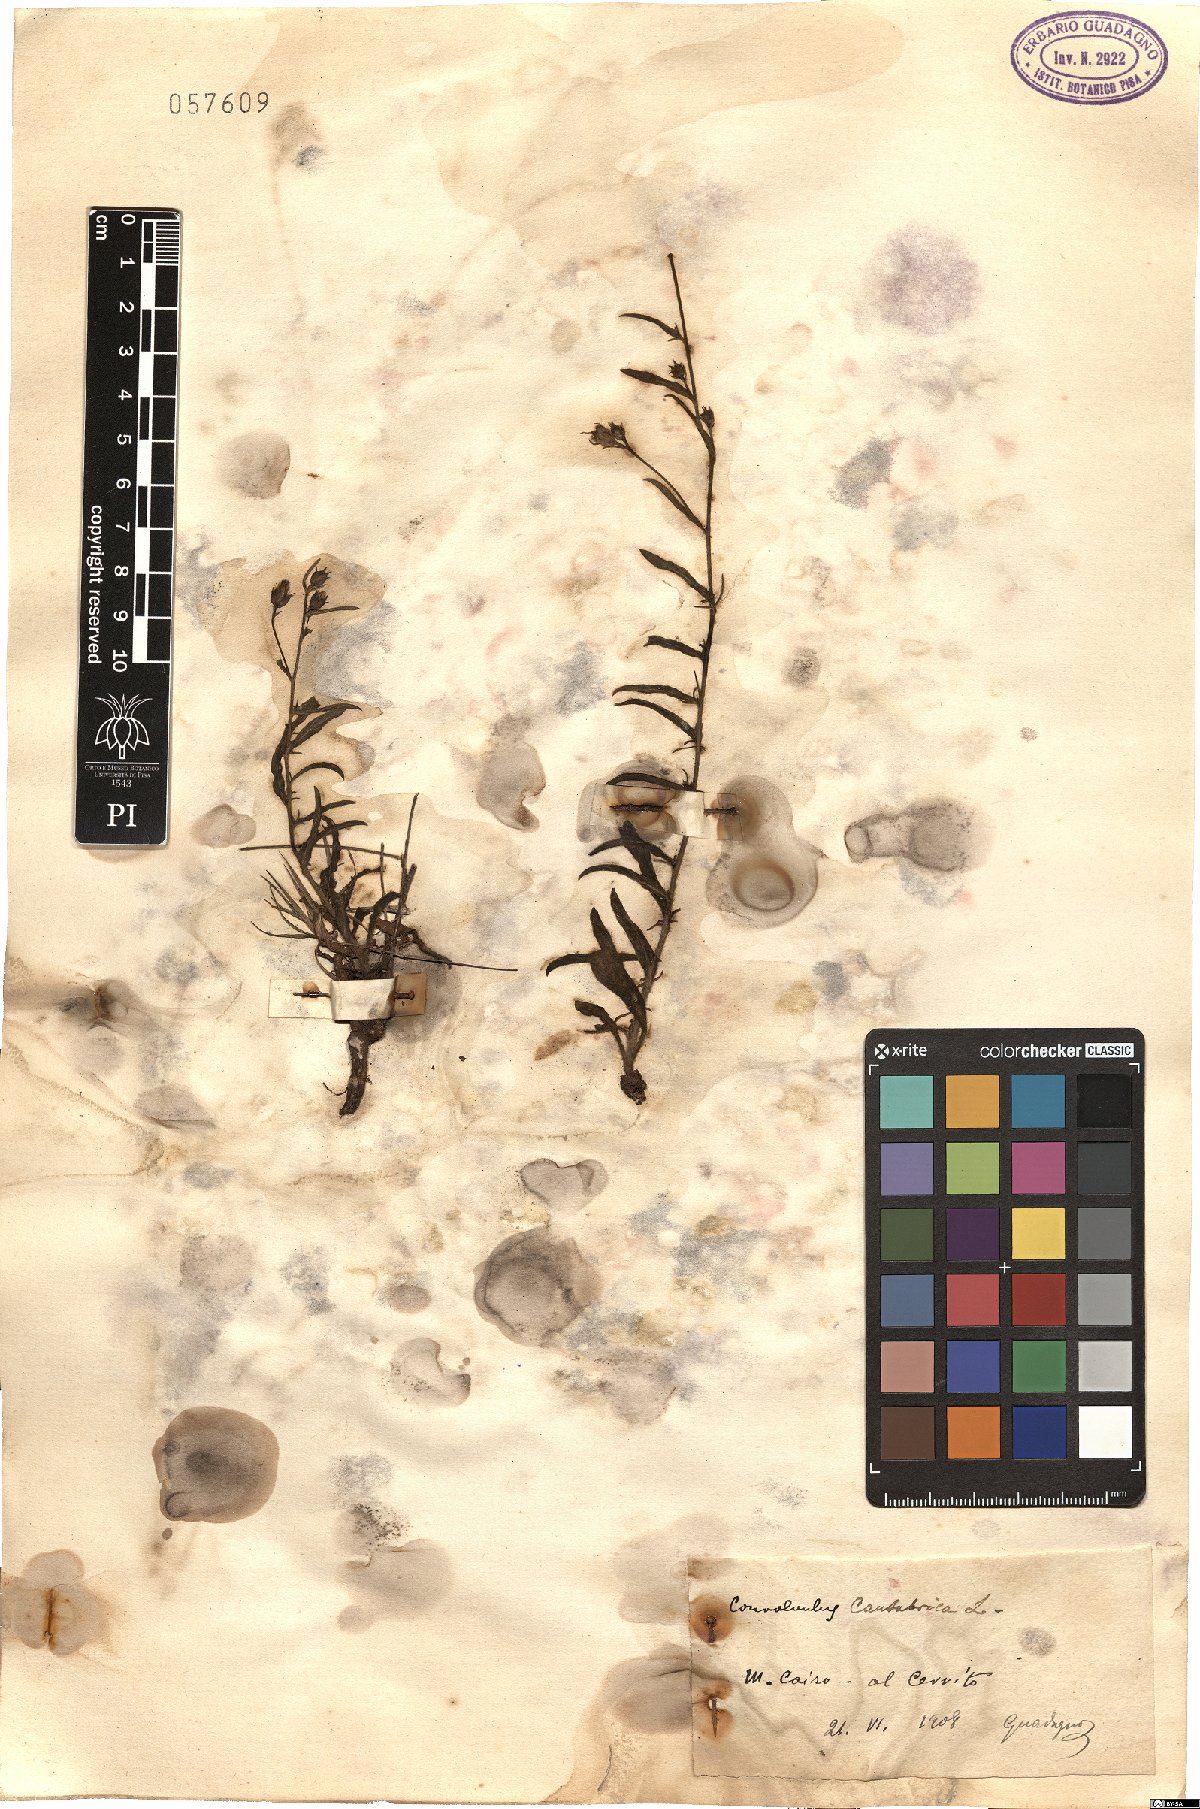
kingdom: Plantae
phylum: Tracheophyta
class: Magnoliopsida
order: Solanales
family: Convolvulaceae
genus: Convolvulus
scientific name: Convolvulus cantabrica
